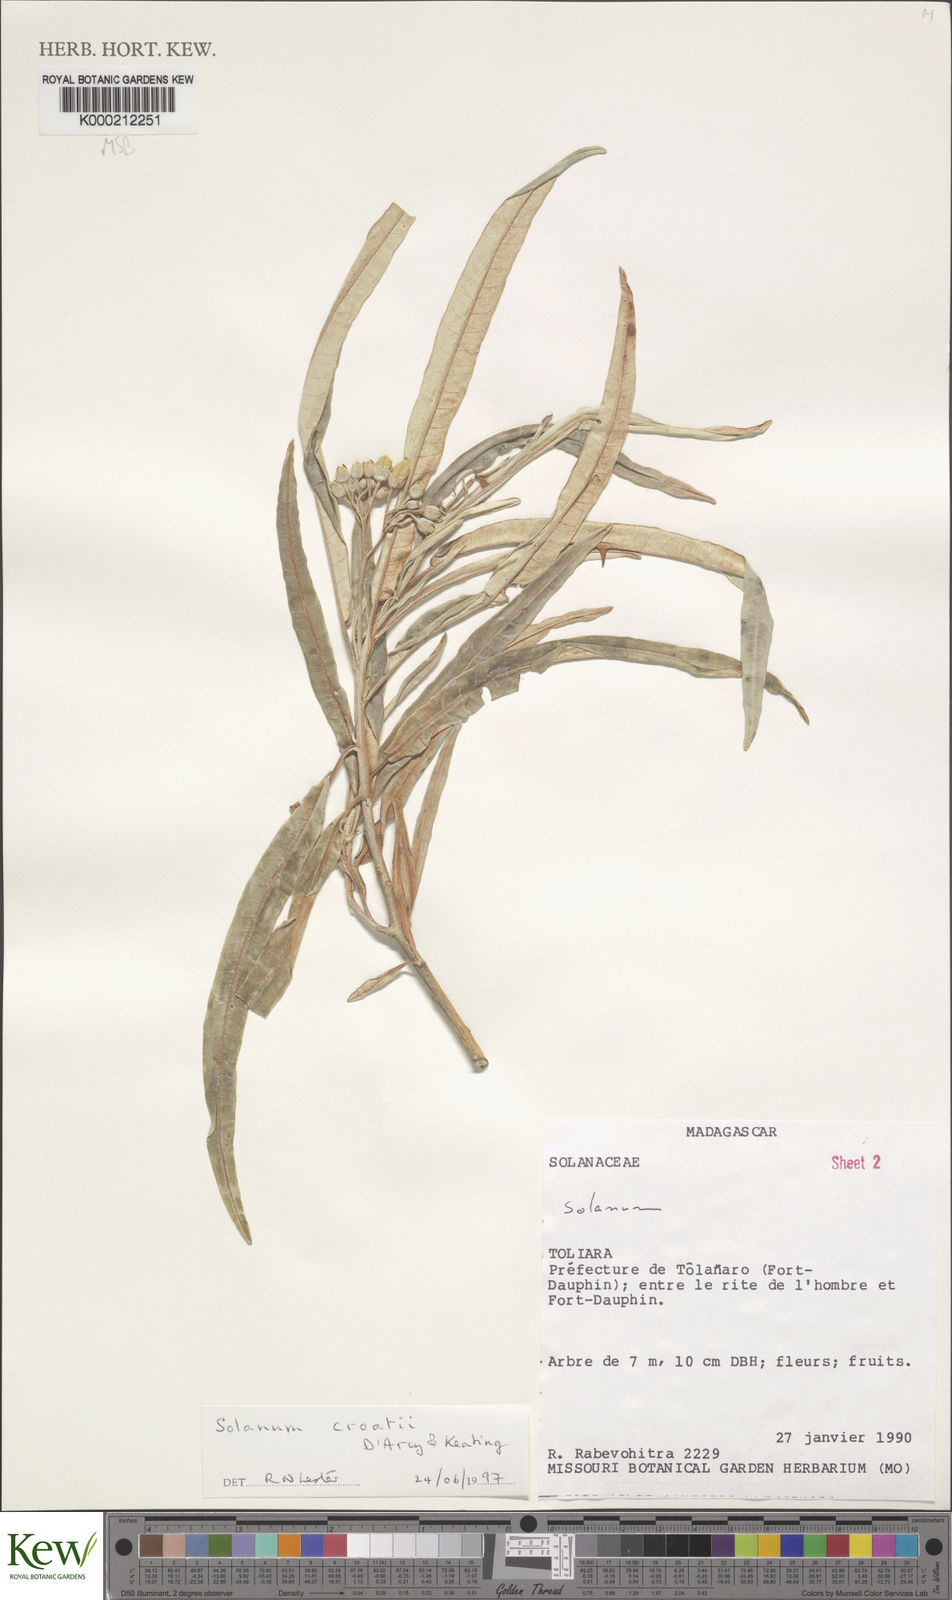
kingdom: Plantae
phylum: Tracheophyta
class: Magnoliopsida
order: Solanales
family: Solanaceae
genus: Solanum
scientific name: Solanum croatii
